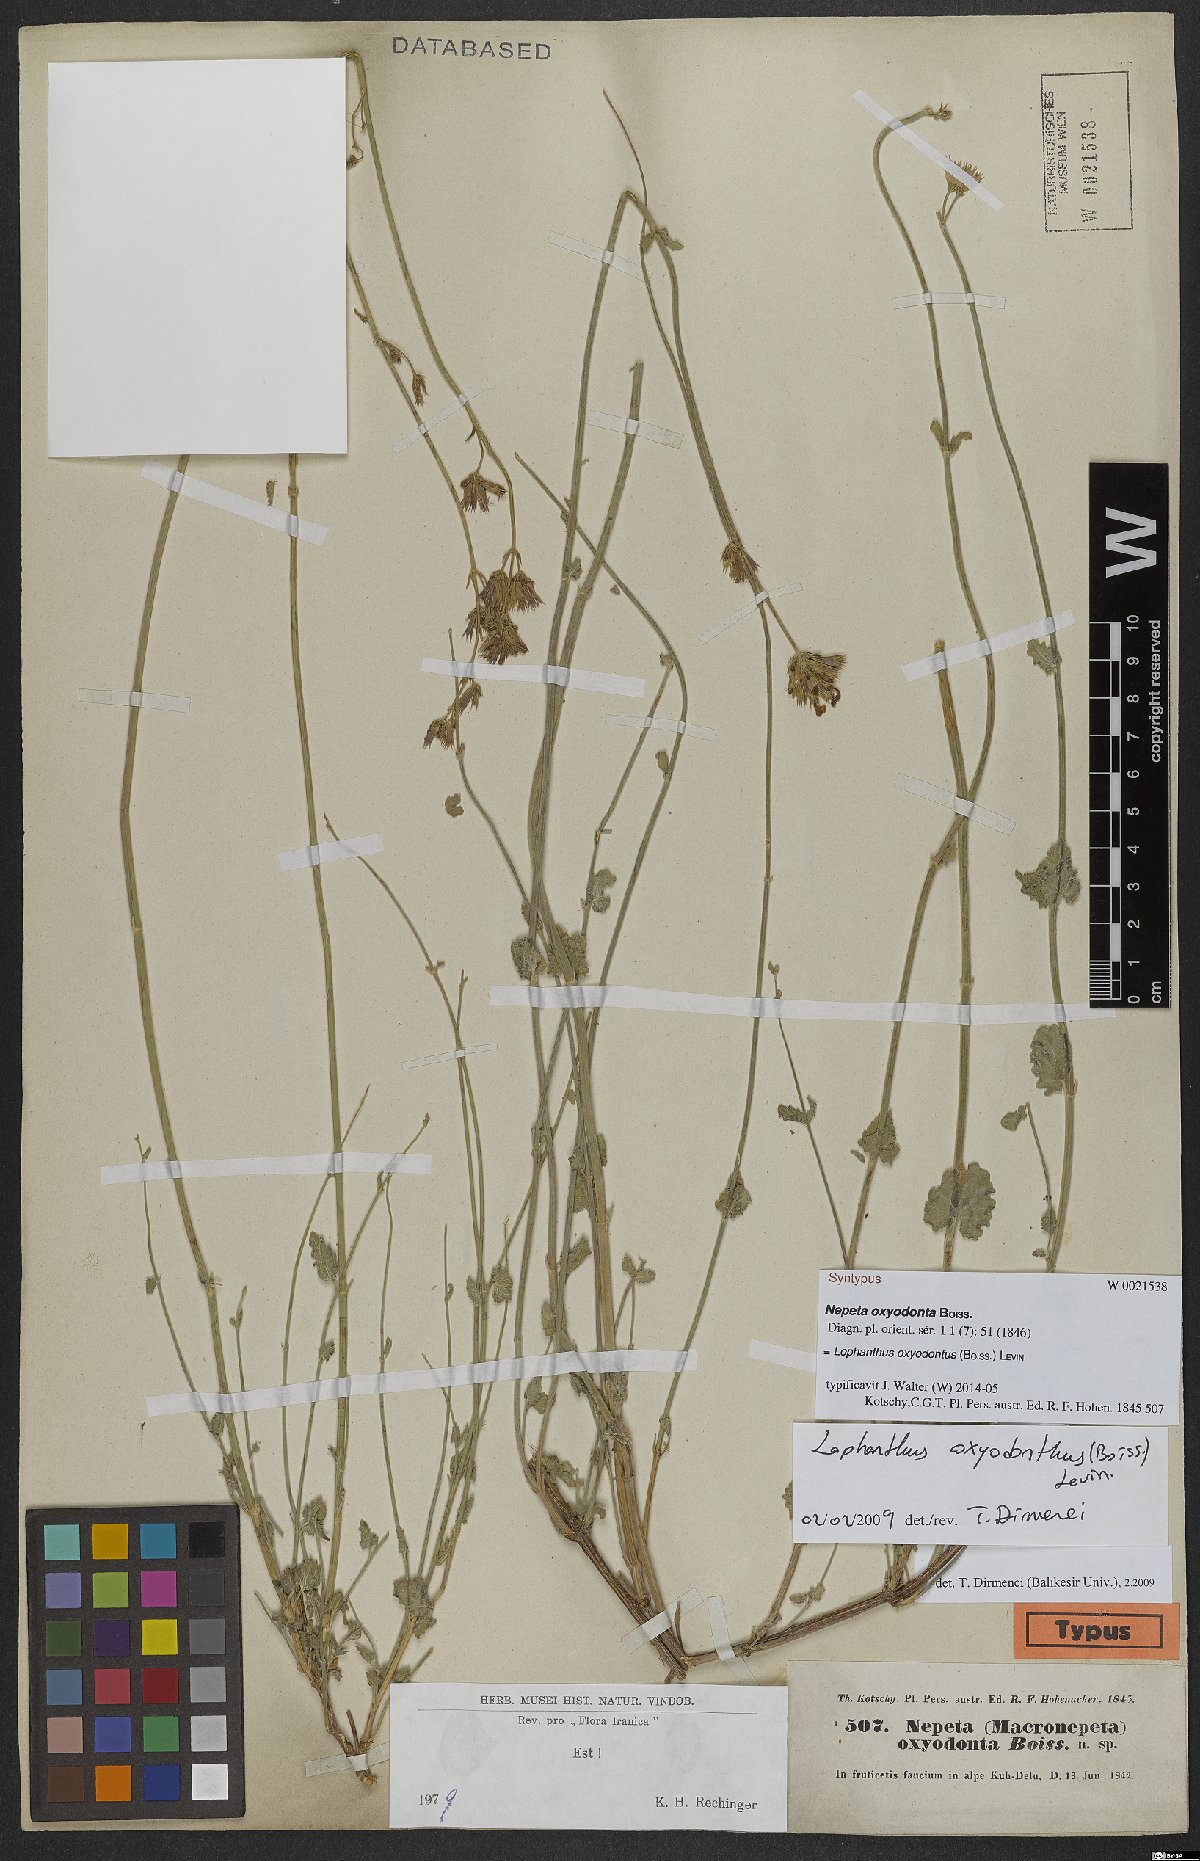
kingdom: Plantae
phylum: Tracheophyta
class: Magnoliopsida
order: Lamiales
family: Lamiaceae
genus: Nepeta
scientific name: Nepeta oxyodonta
